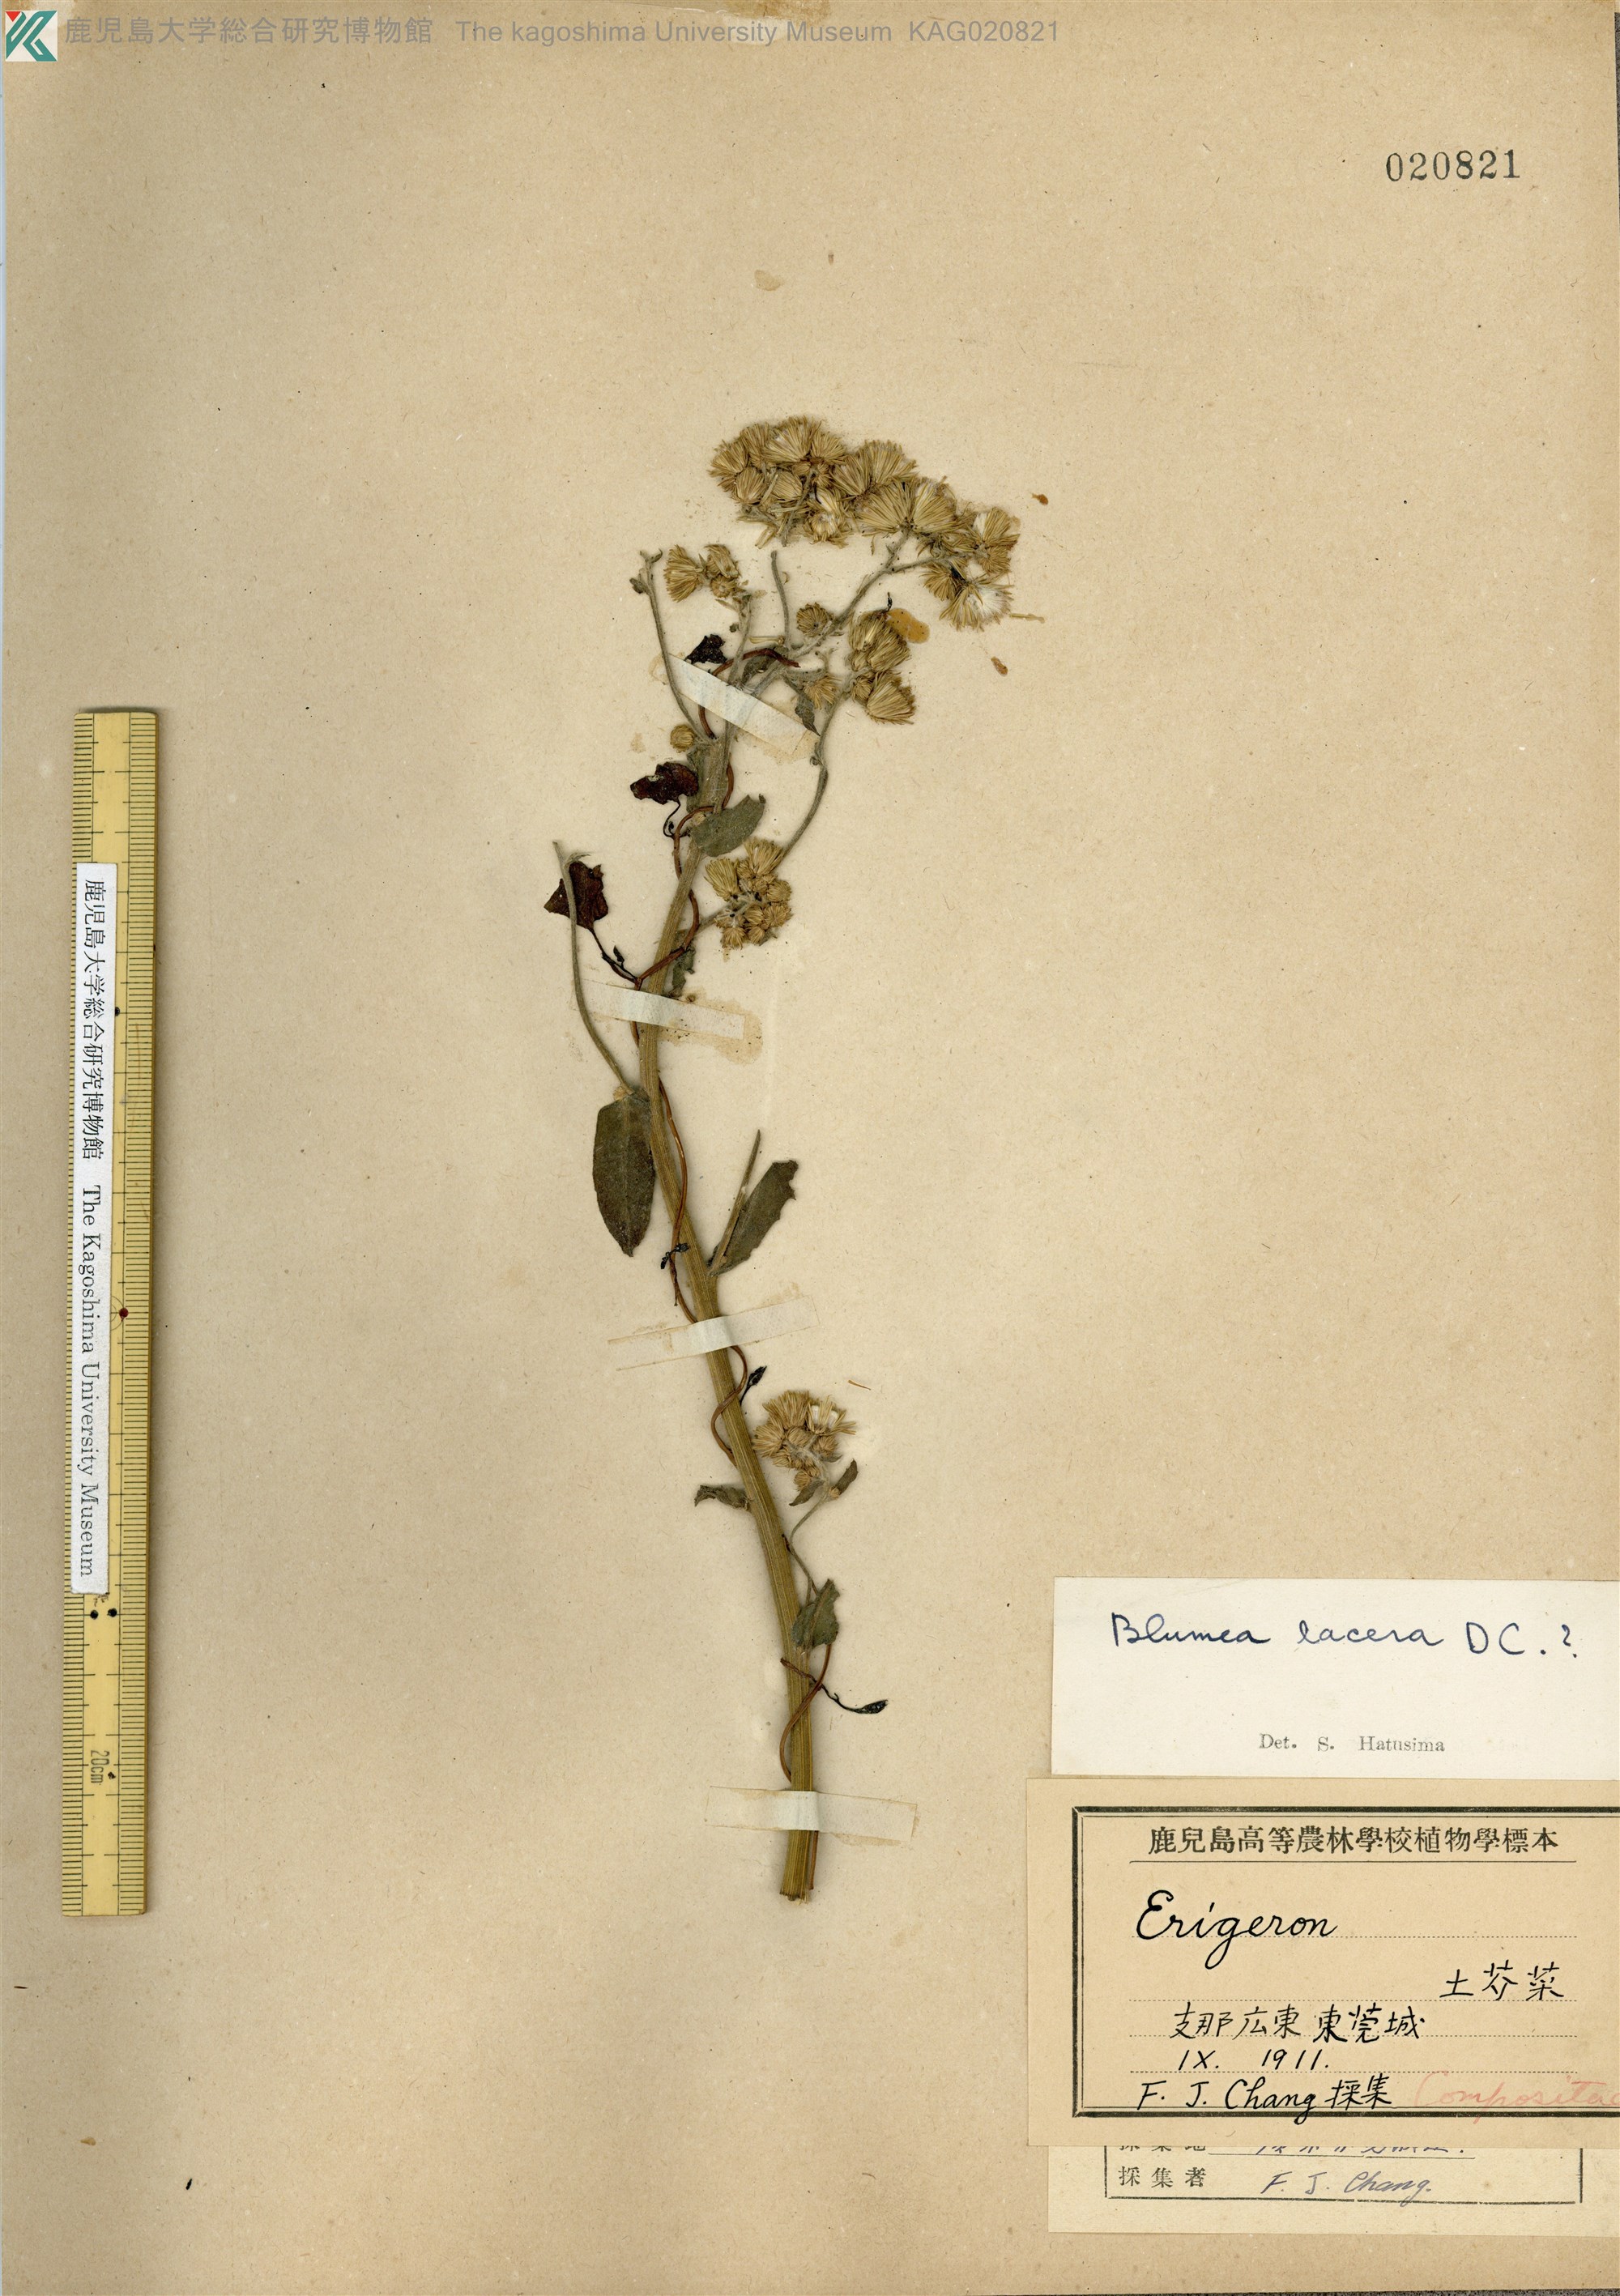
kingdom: Plantae
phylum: Tracheophyta
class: Magnoliopsida
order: Asterales
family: Asteraceae
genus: Blumea
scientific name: Blumea lacera
